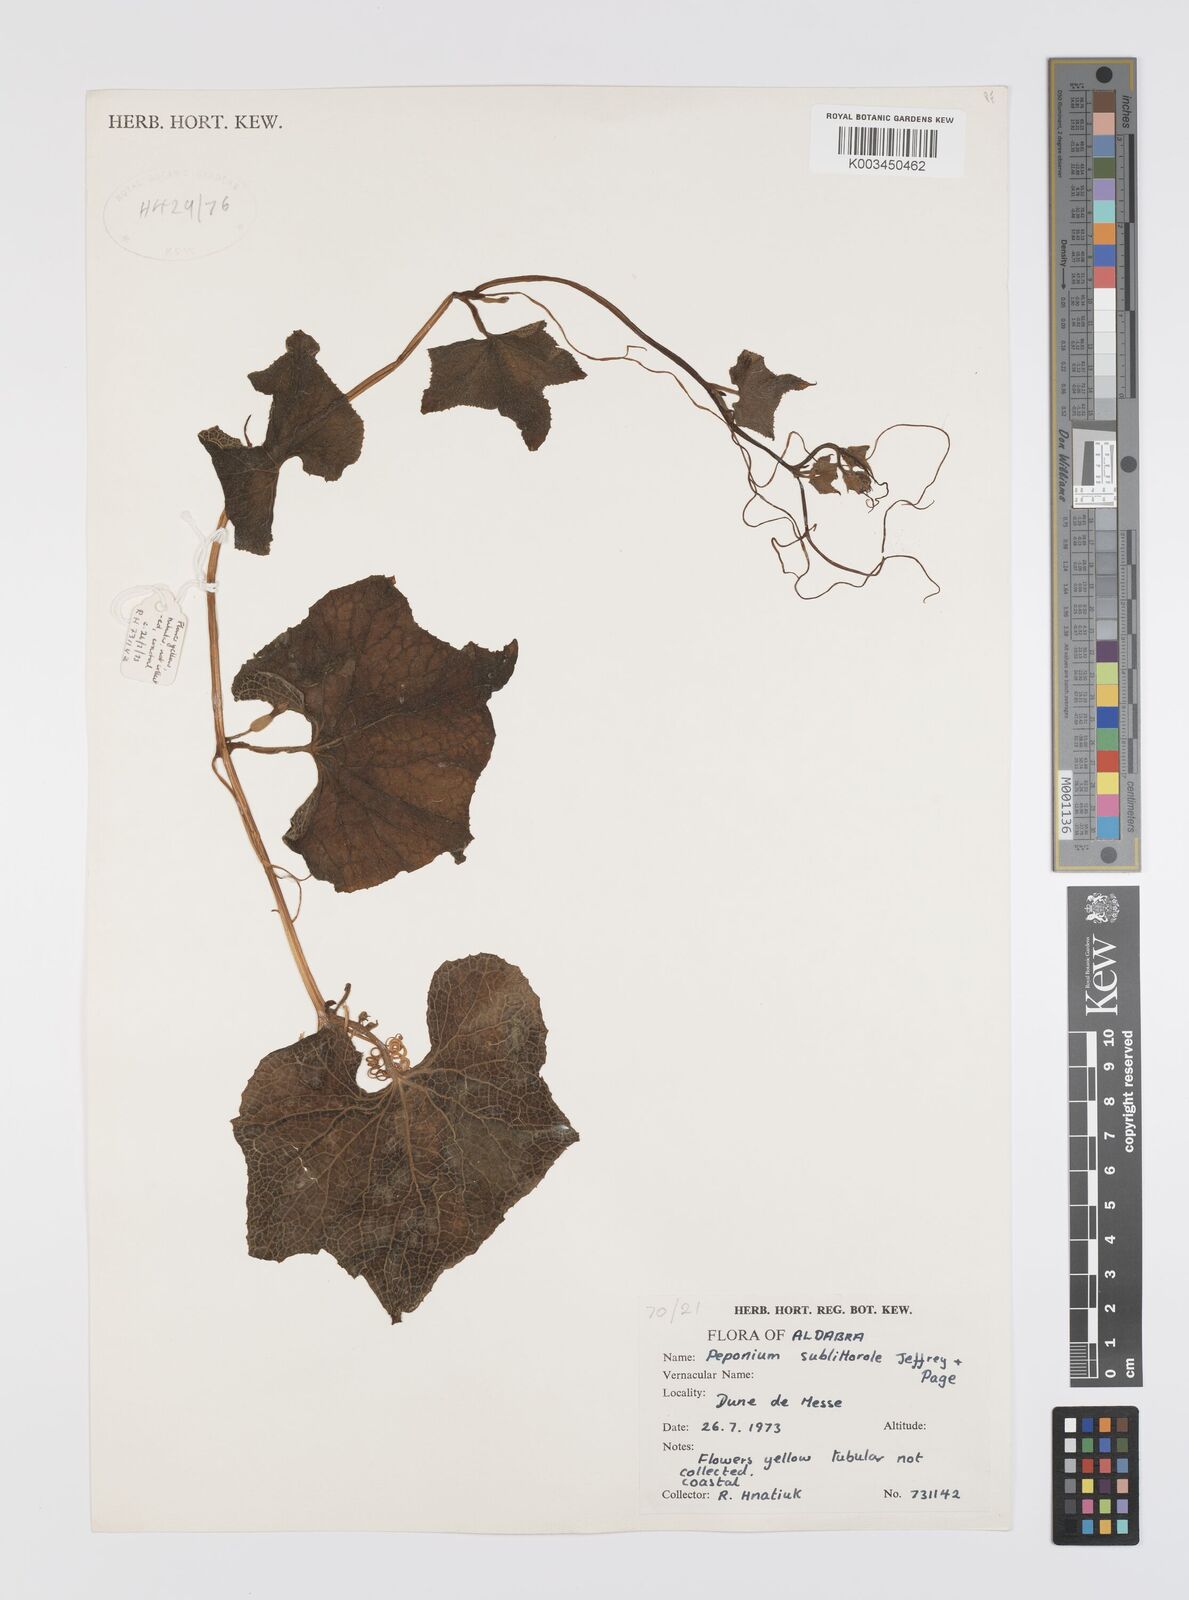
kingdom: Plantae
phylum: Tracheophyta
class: Magnoliopsida
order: Cucurbitales
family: Cucurbitaceae
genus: Peponium
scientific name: Peponium sublitorale
